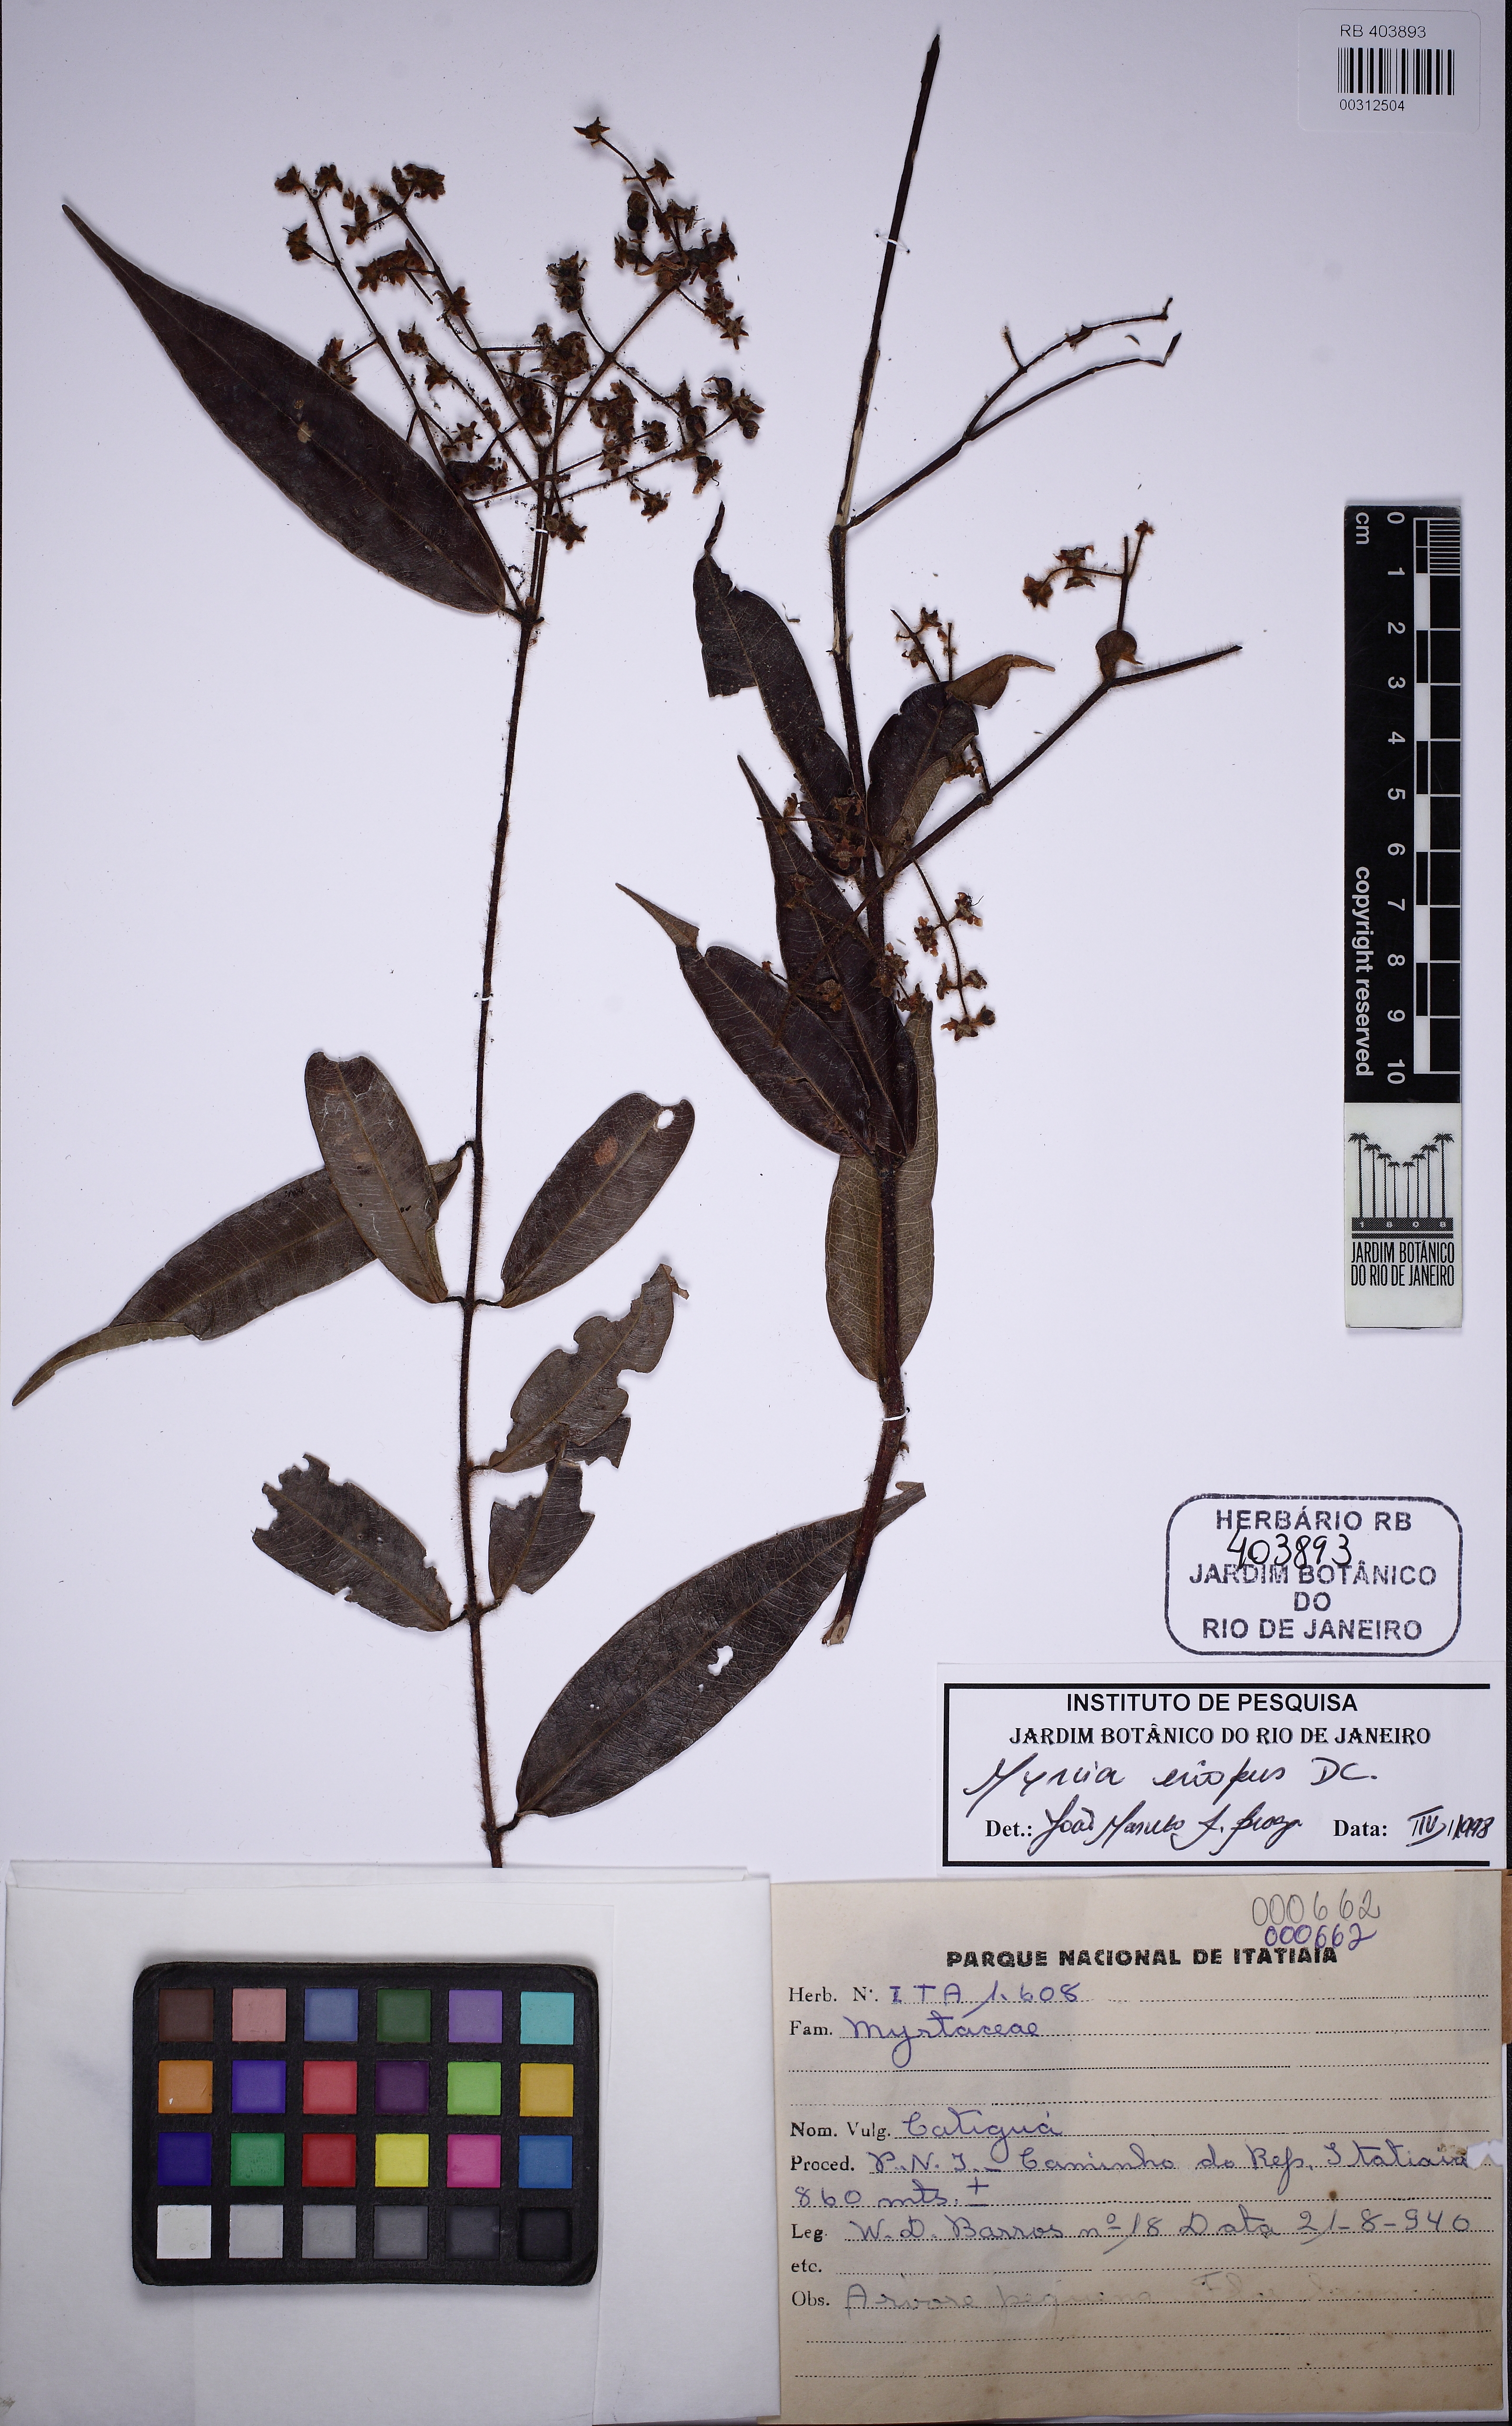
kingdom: Plantae
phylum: Tracheophyta
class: Magnoliopsida
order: Myrtales
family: Myrtaceae
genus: Myrcia
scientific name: Myrcia eriopus
